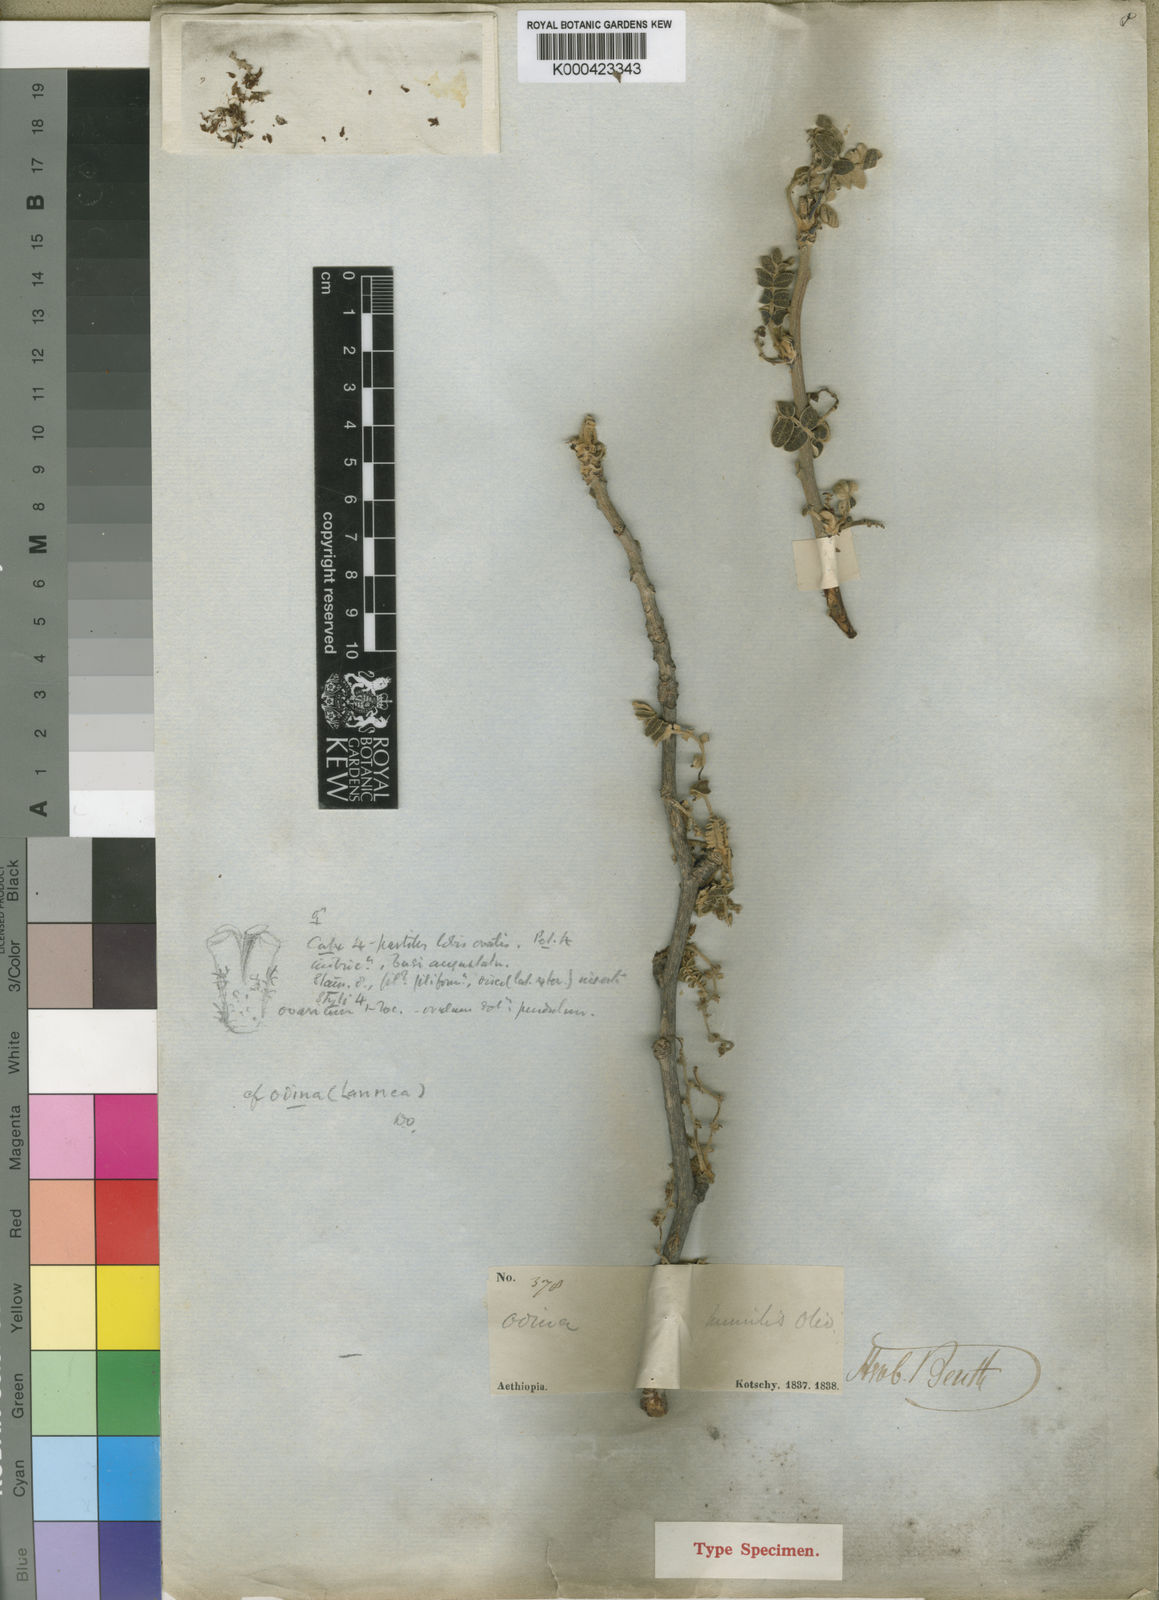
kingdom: Plantae
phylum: Tracheophyta
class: Magnoliopsida
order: Sapindales
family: Anacardiaceae
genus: Lannea
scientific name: Lannea humilis
